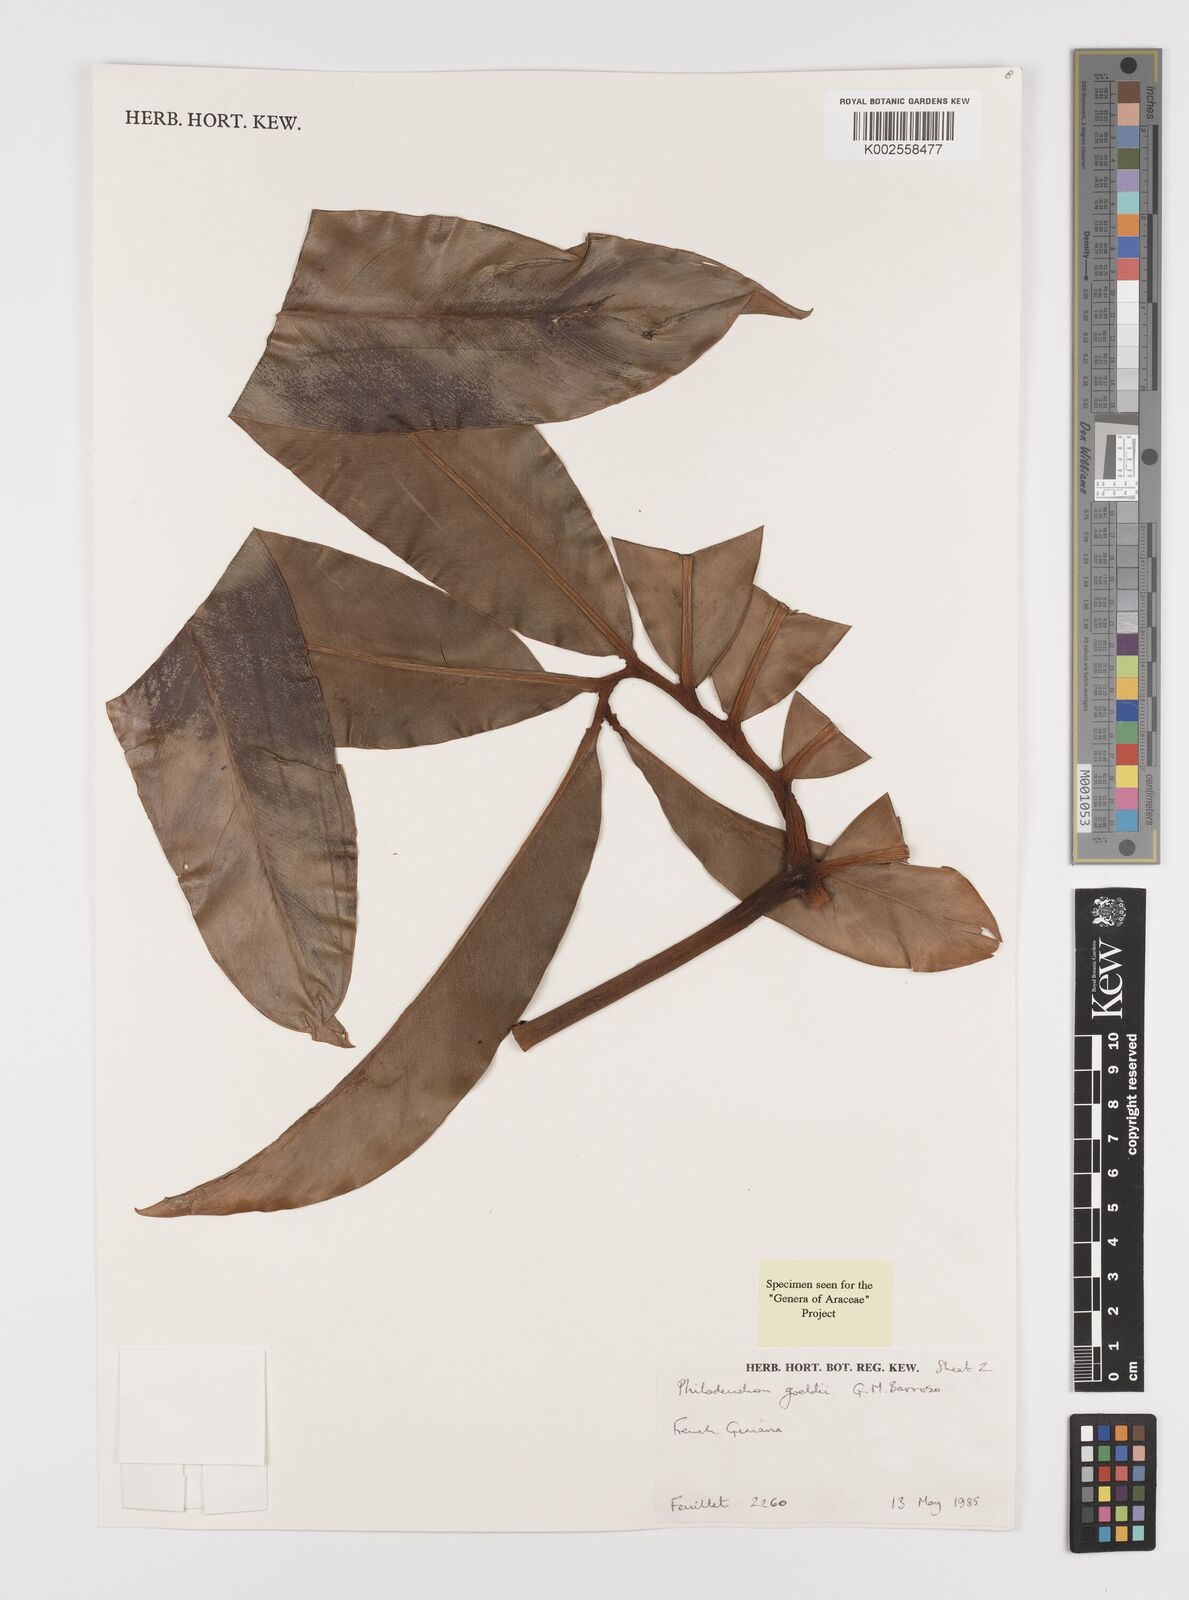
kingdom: Plantae
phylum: Tracheophyta
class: Liliopsida
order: Alismatales
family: Araceae
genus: Thaumatophyllum
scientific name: Thaumatophyllum spruceanum
